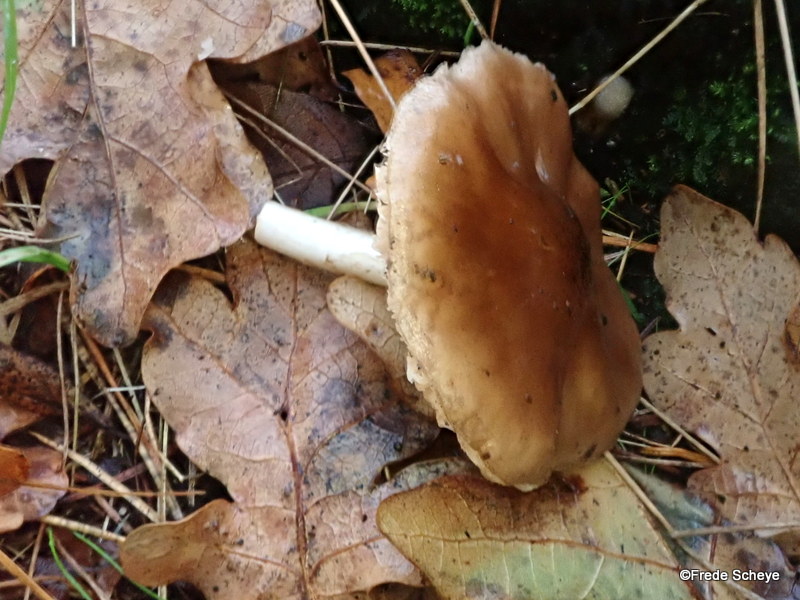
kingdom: Fungi
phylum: Basidiomycota
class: Agaricomycetes
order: Agaricales
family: Pluteaceae
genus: Pluteus
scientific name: Pluteus cervinus
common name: sodfarvet skærmhat
